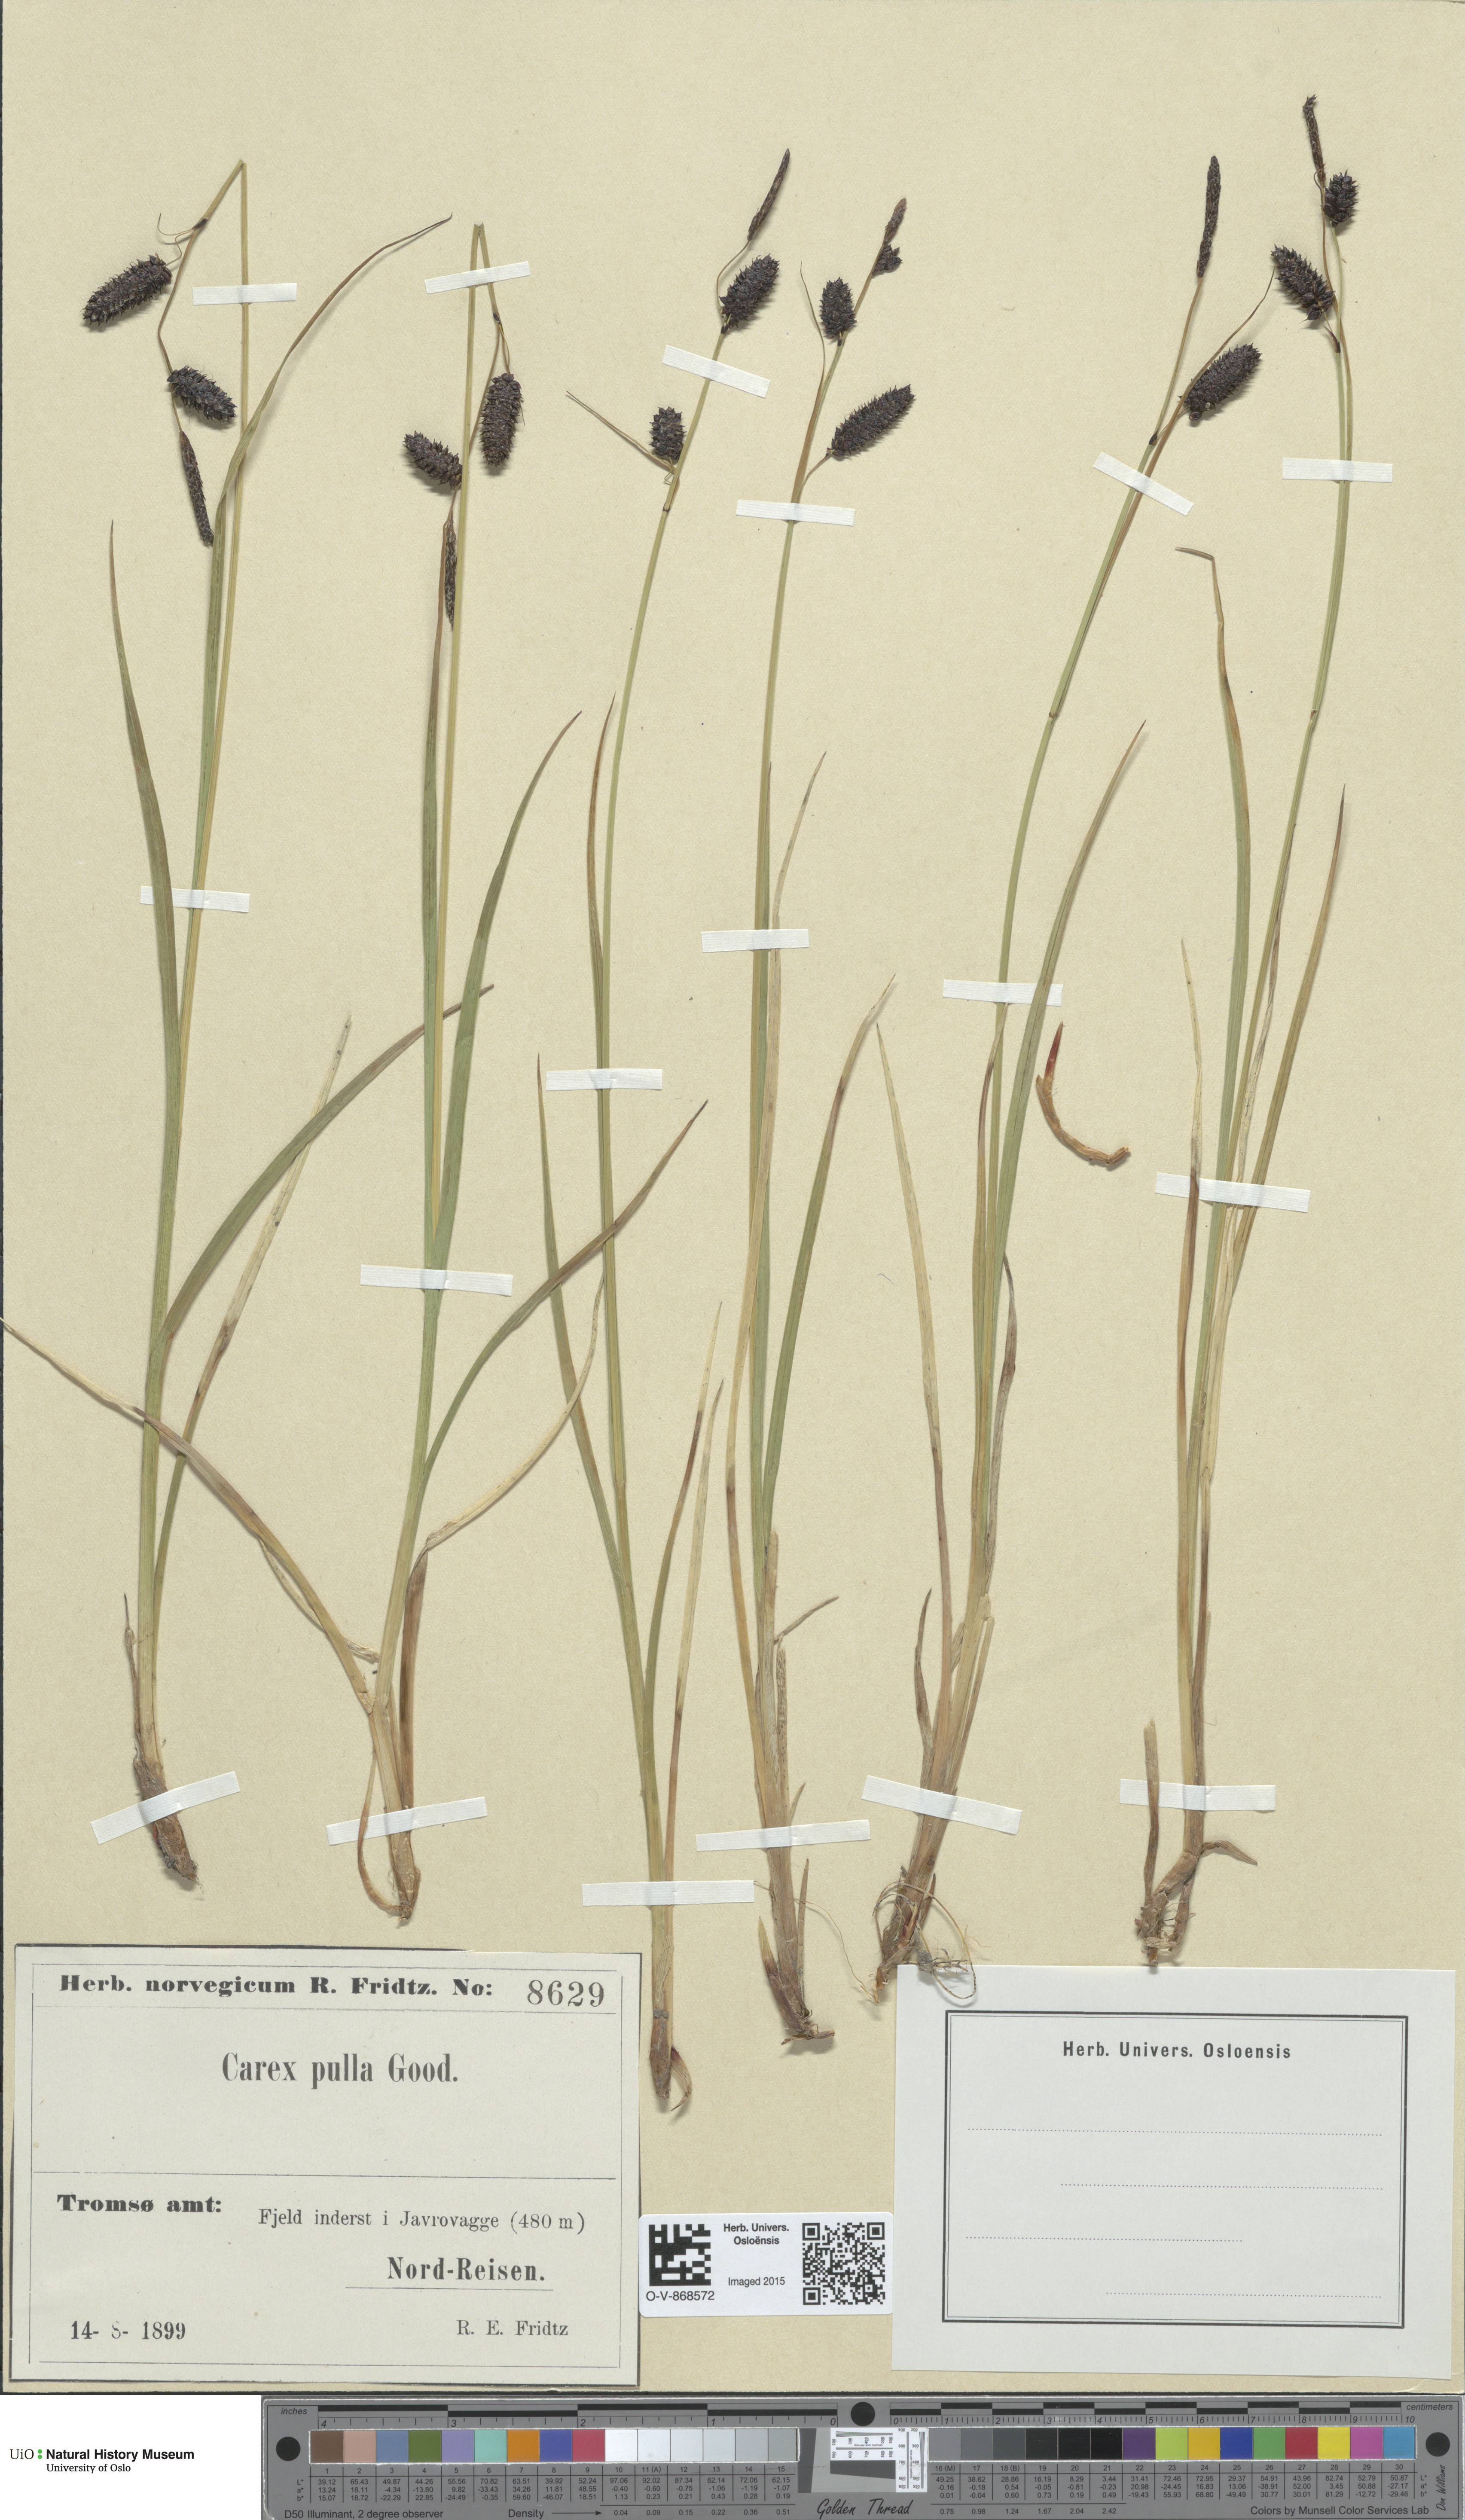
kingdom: Plantae
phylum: Tracheophyta
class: Liliopsida
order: Poales
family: Cyperaceae
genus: Carex
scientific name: Carex saxatilis
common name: Russet sedge
